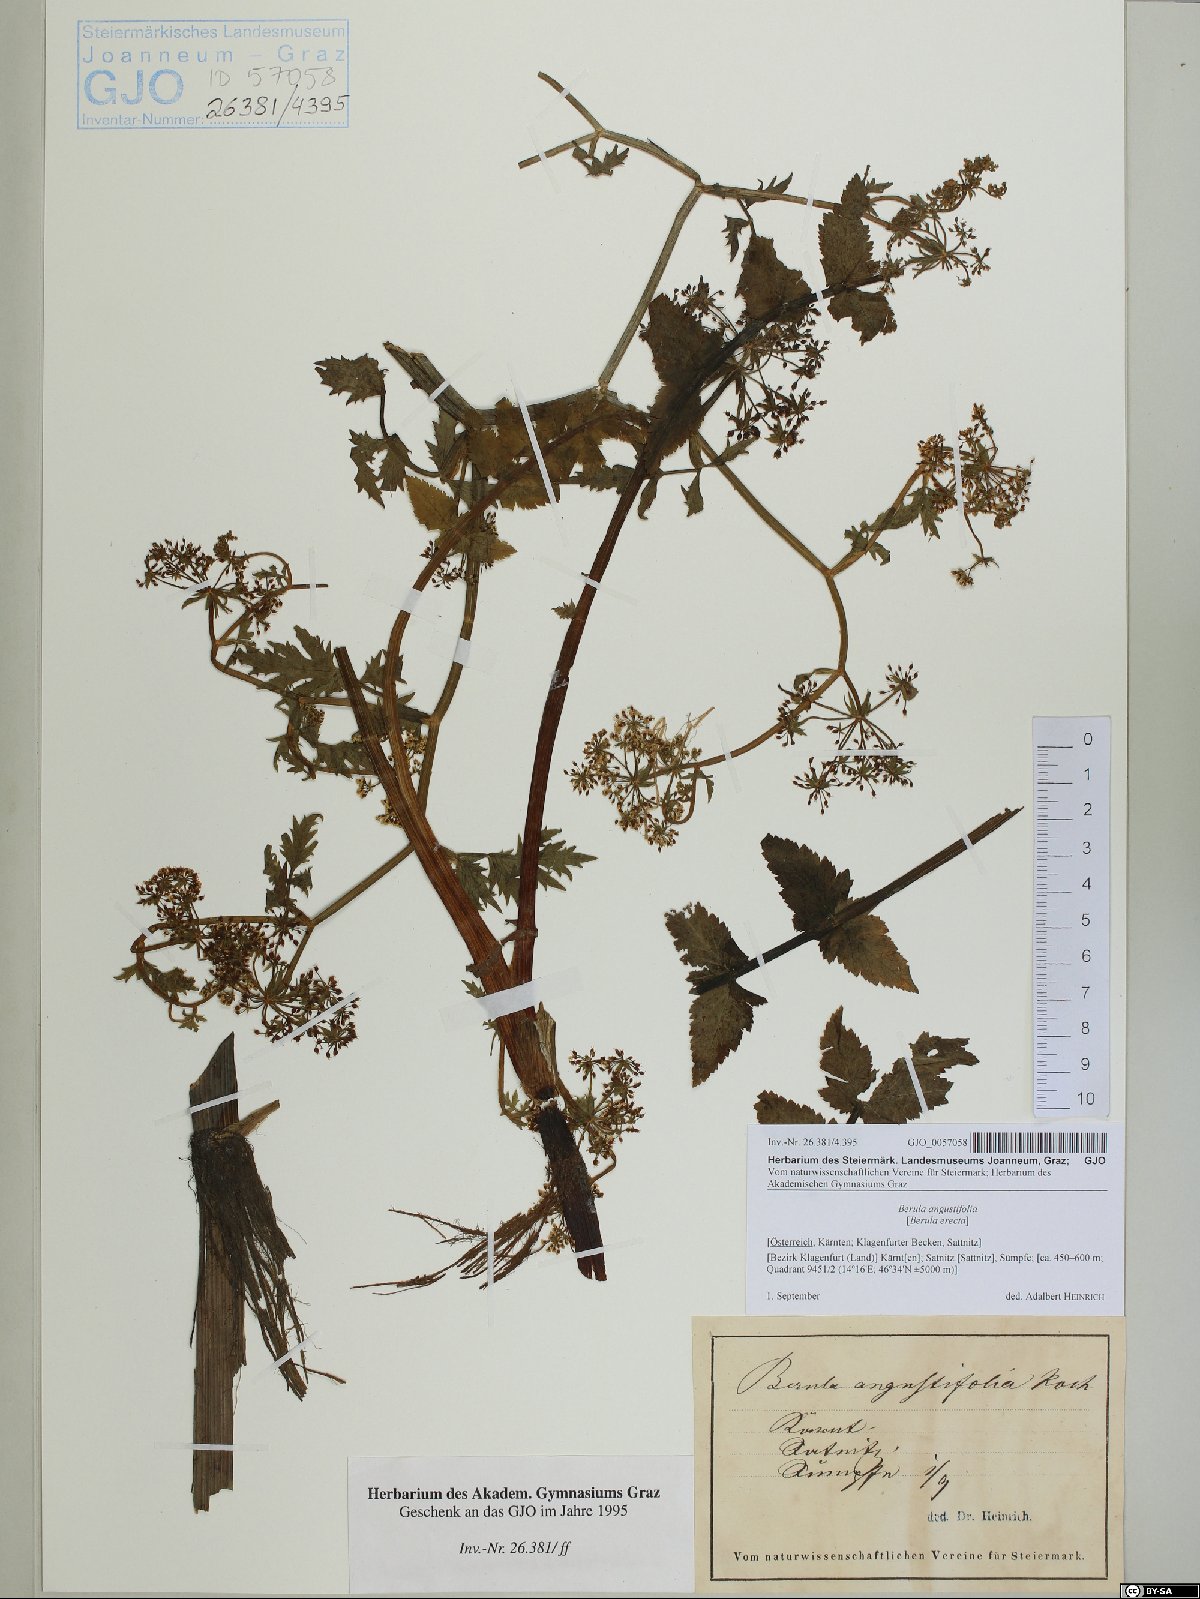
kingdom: Plantae
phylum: Tracheophyta
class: Magnoliopsida
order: Apiales
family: Apiaceae
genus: Berula
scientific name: Berula erecta
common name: Lesser water-parsnip
